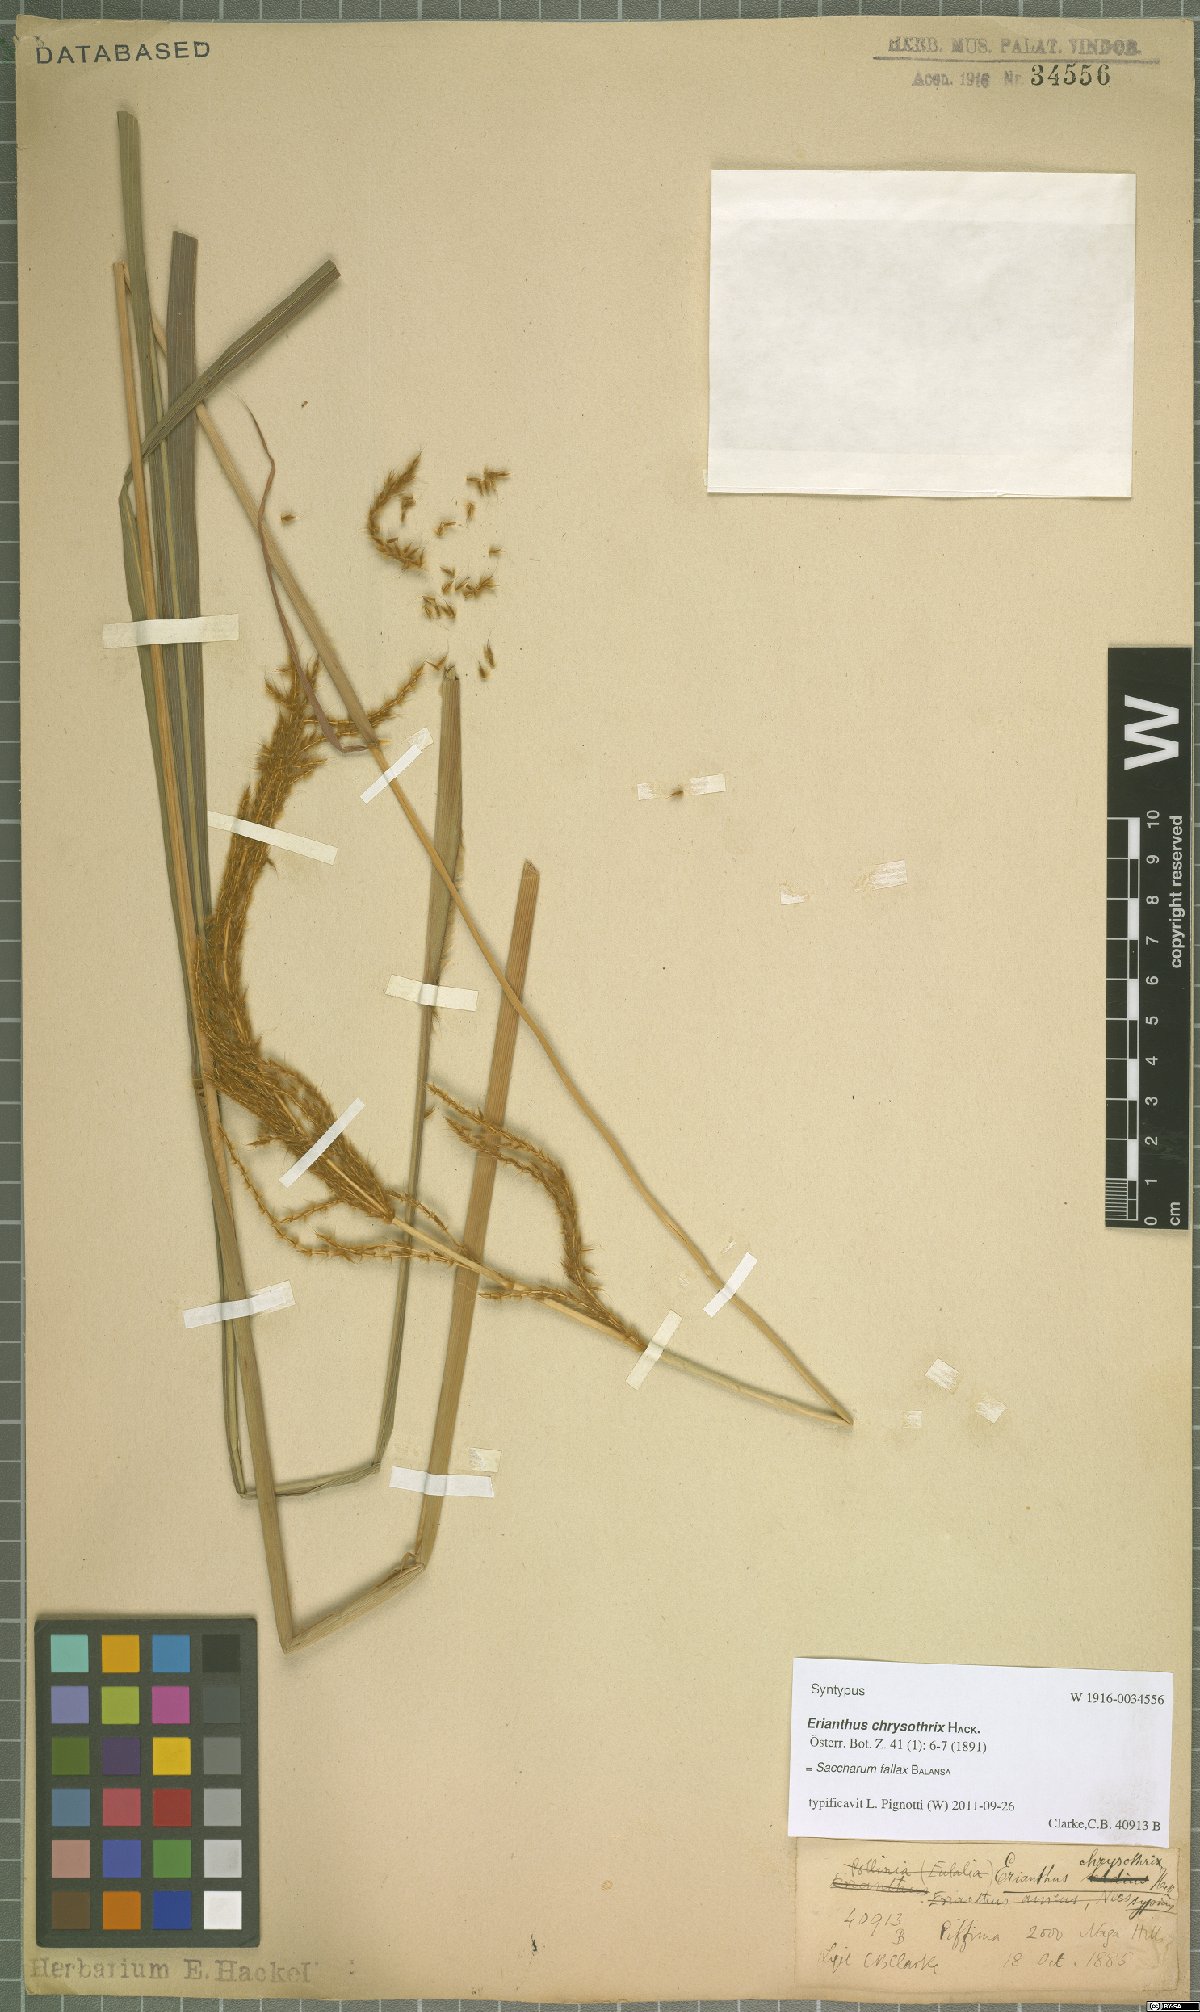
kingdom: Plantae
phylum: Tracheophyta
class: Liliopsida
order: Poales
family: Poaceae
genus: Narenga
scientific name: Narenga fallax
